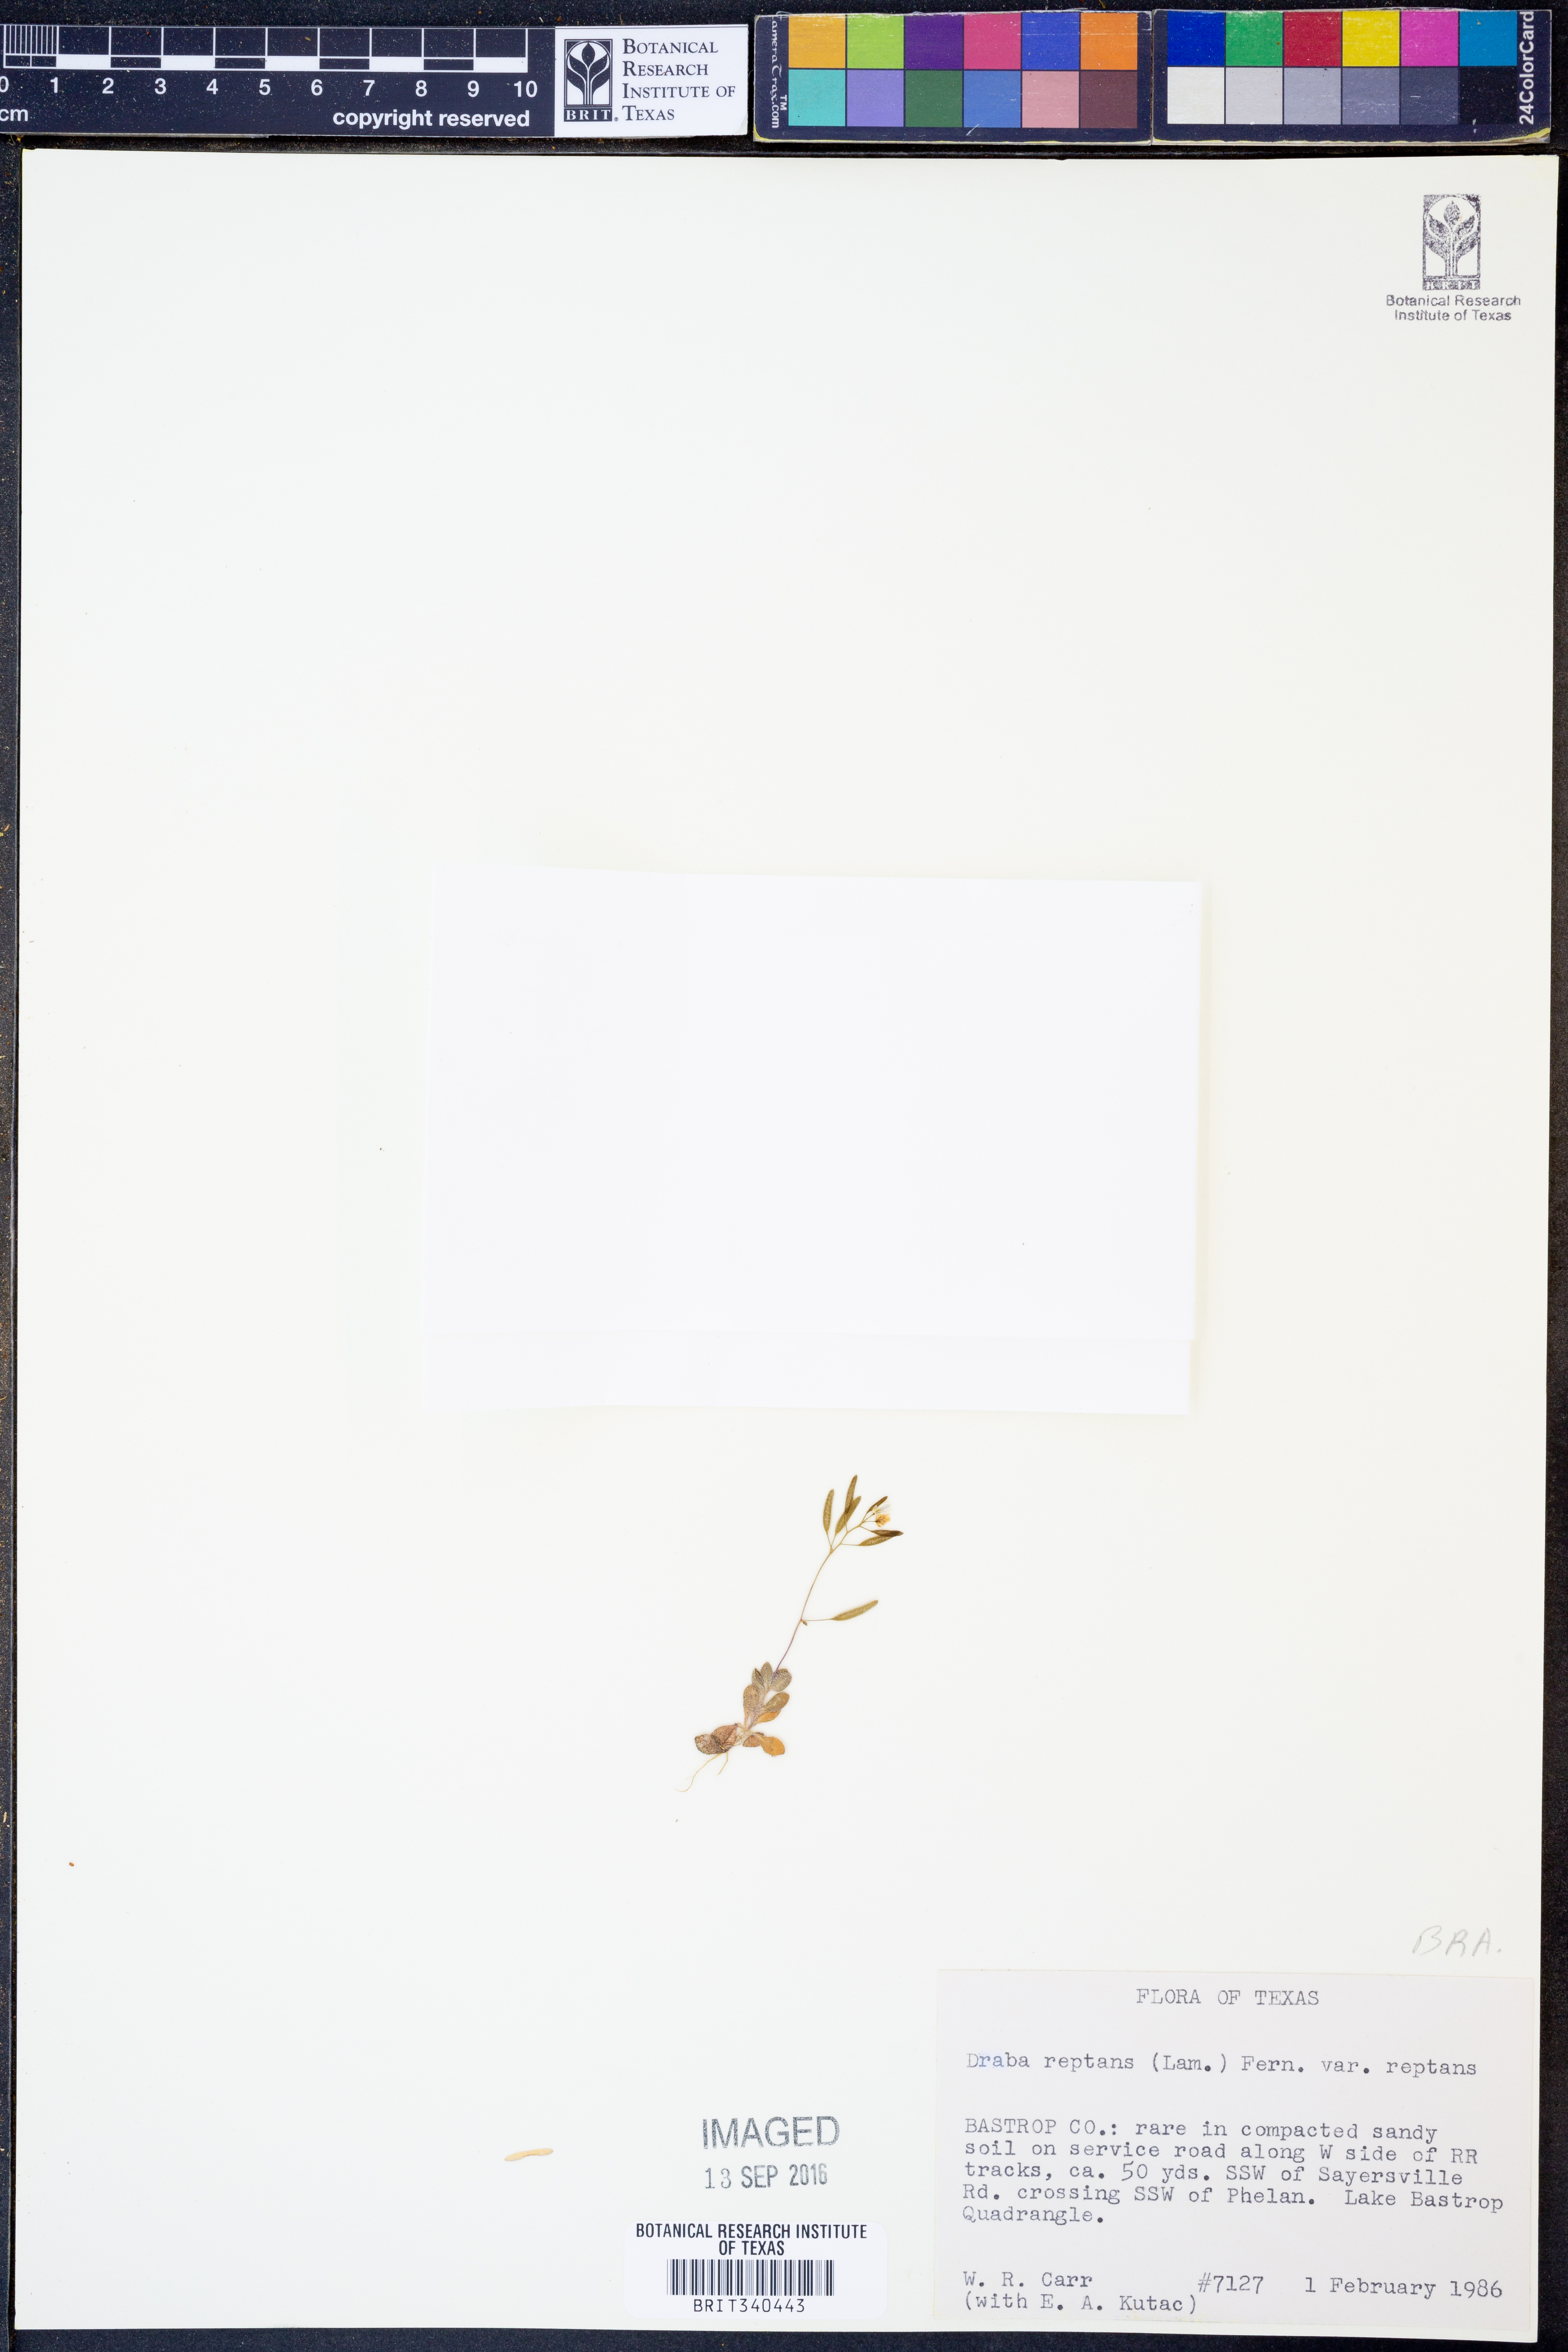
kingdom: Plantae
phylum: Tracheophyta
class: Magnoliopsida
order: Brassicales
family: Brassicaceae
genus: Tomostima
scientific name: Tomostima reptans
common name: Carolina draba
